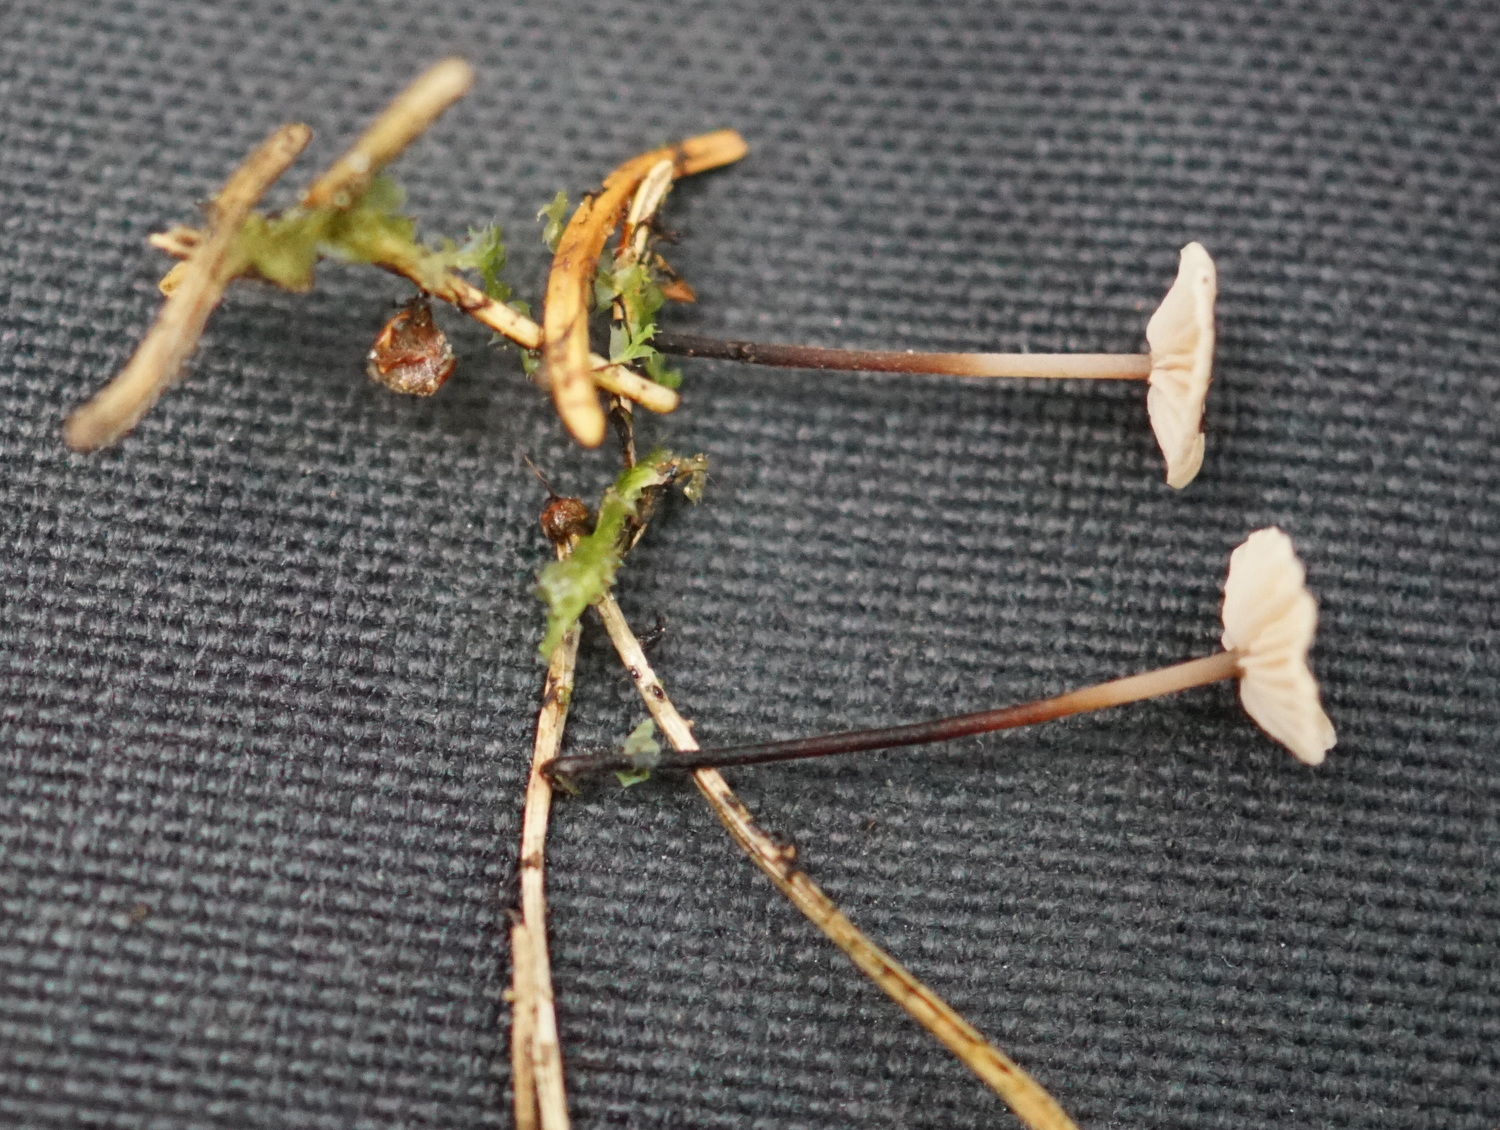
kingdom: Fungi
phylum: Basidiomycota
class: Agaricomycetes
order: Agaricales
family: Omphalotaceae
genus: Paragymnopus
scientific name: Paragymnopus perforans
